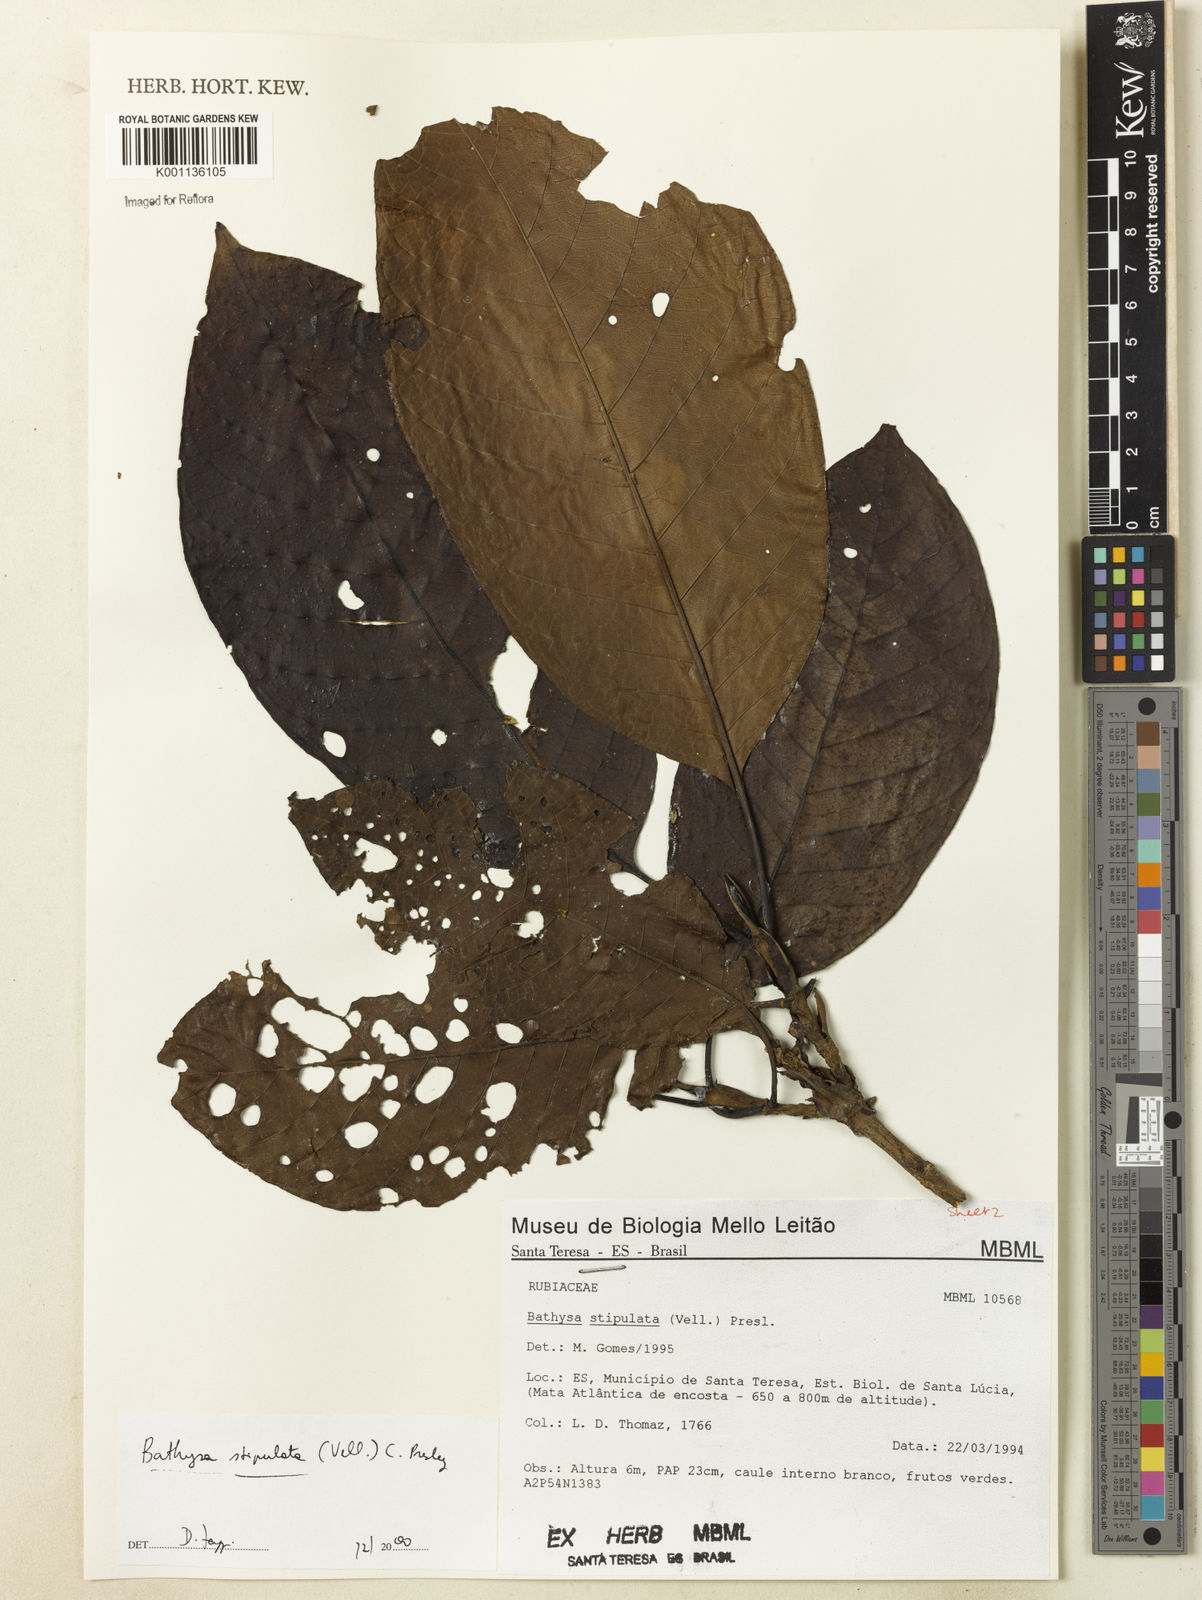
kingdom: Plantae
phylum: Tracheophyta
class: Magnoliopsida
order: Gentianales
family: Rubiaceae
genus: Bathysa
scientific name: Bathysa stipulata
